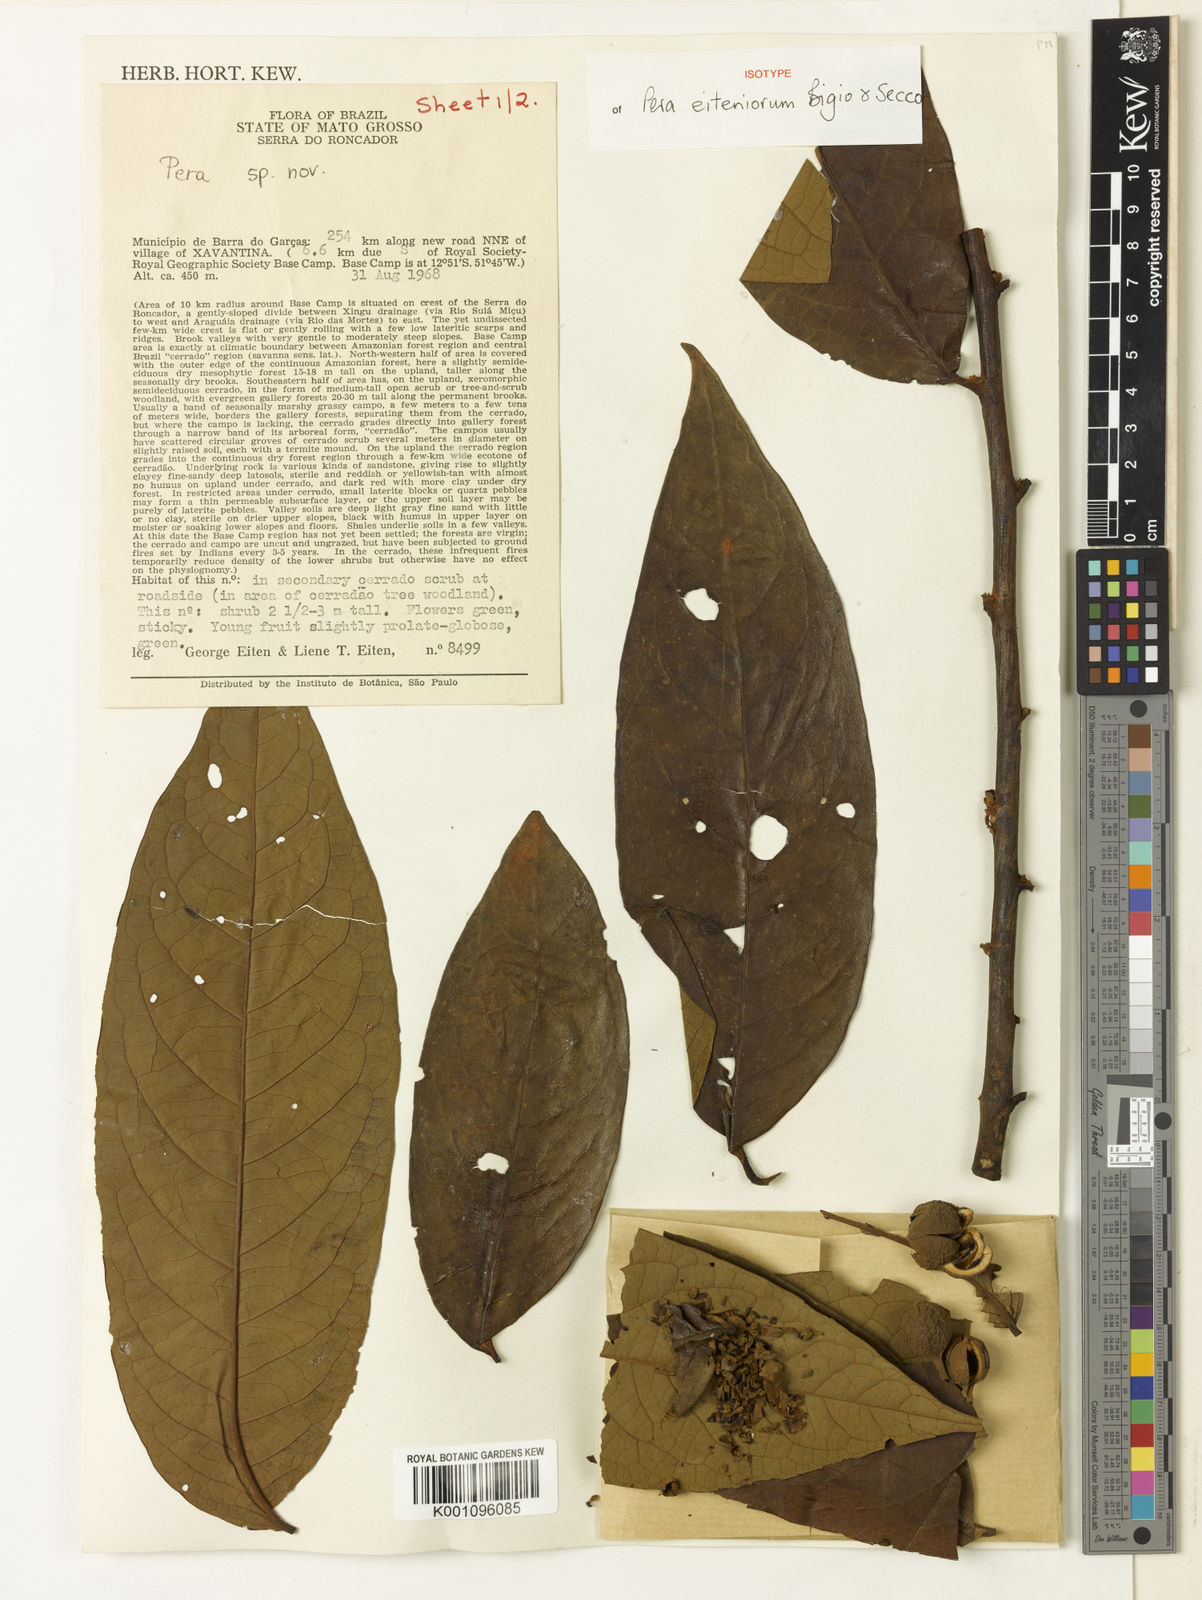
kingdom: Plantae
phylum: Tracheophyta
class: Magnoliopsida
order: Malpighiales
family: Peraceae
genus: Pera
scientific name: Pera eiteniorum
